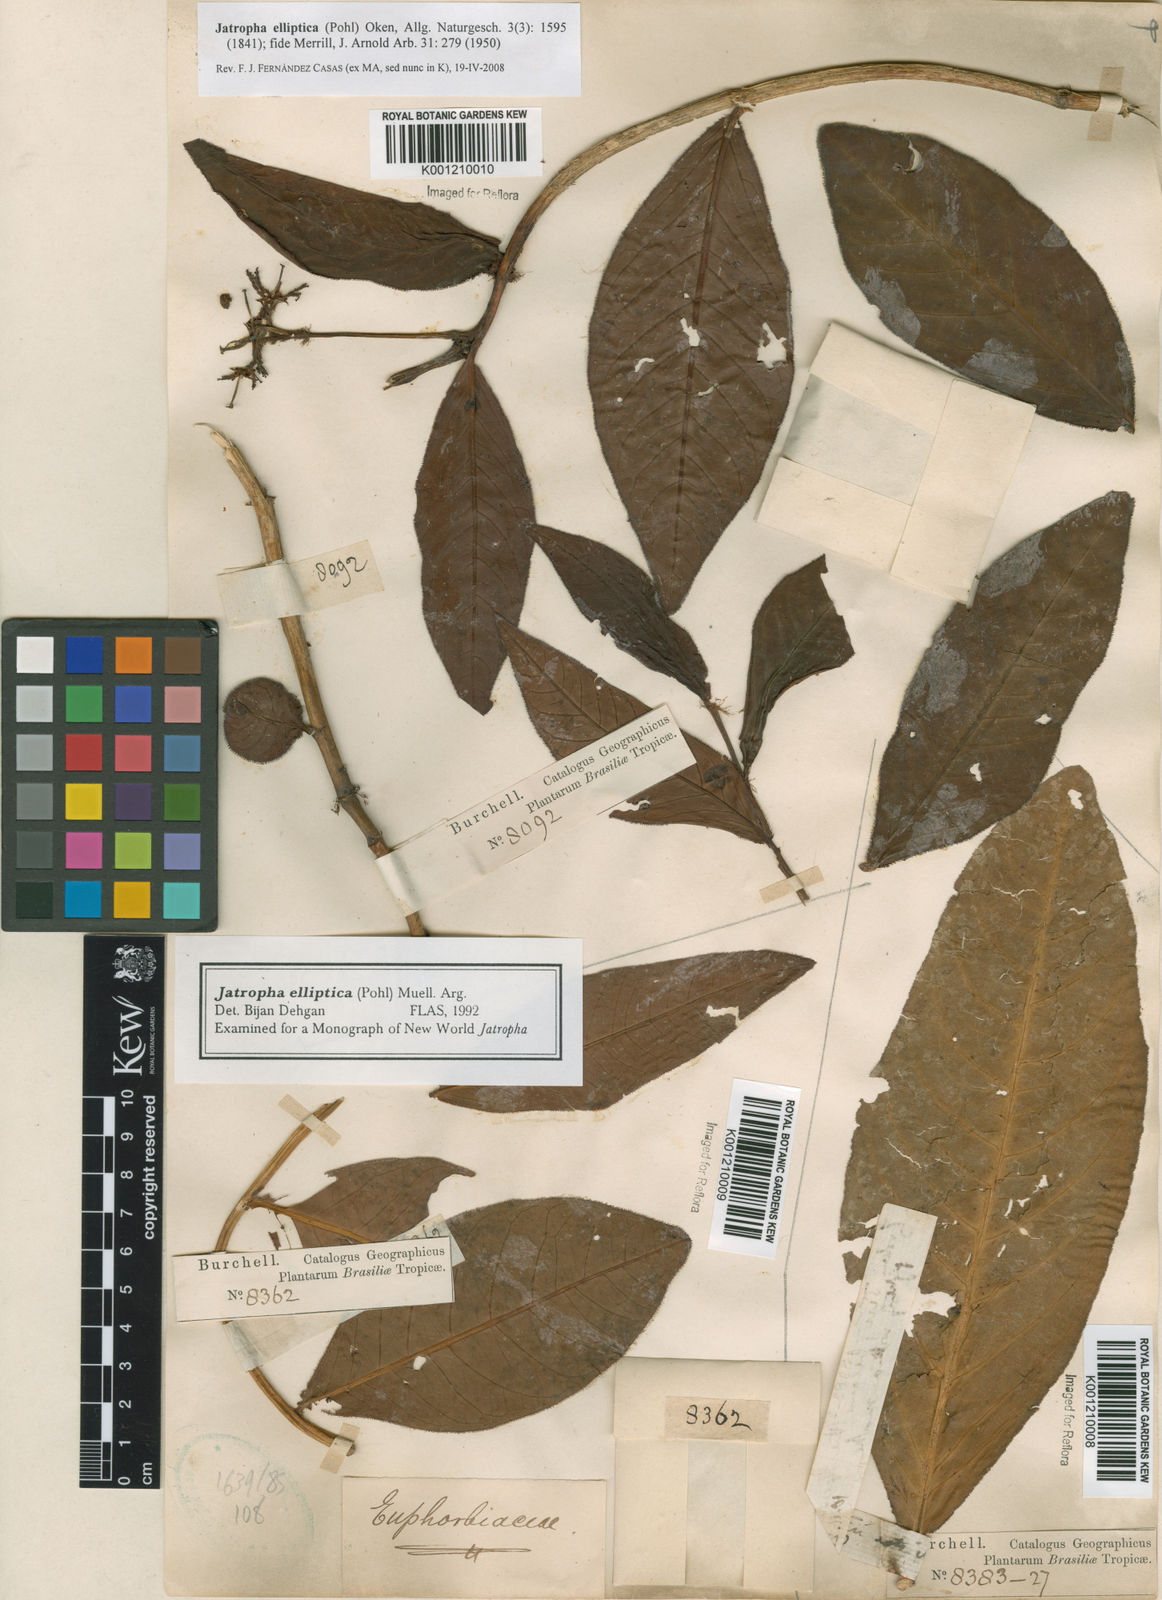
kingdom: Plantae
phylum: Tracheophyta
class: Magnoliopsida
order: Malpighiales
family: Euphorbiaceae
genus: Jatropha
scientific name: Jatropha elliptica
